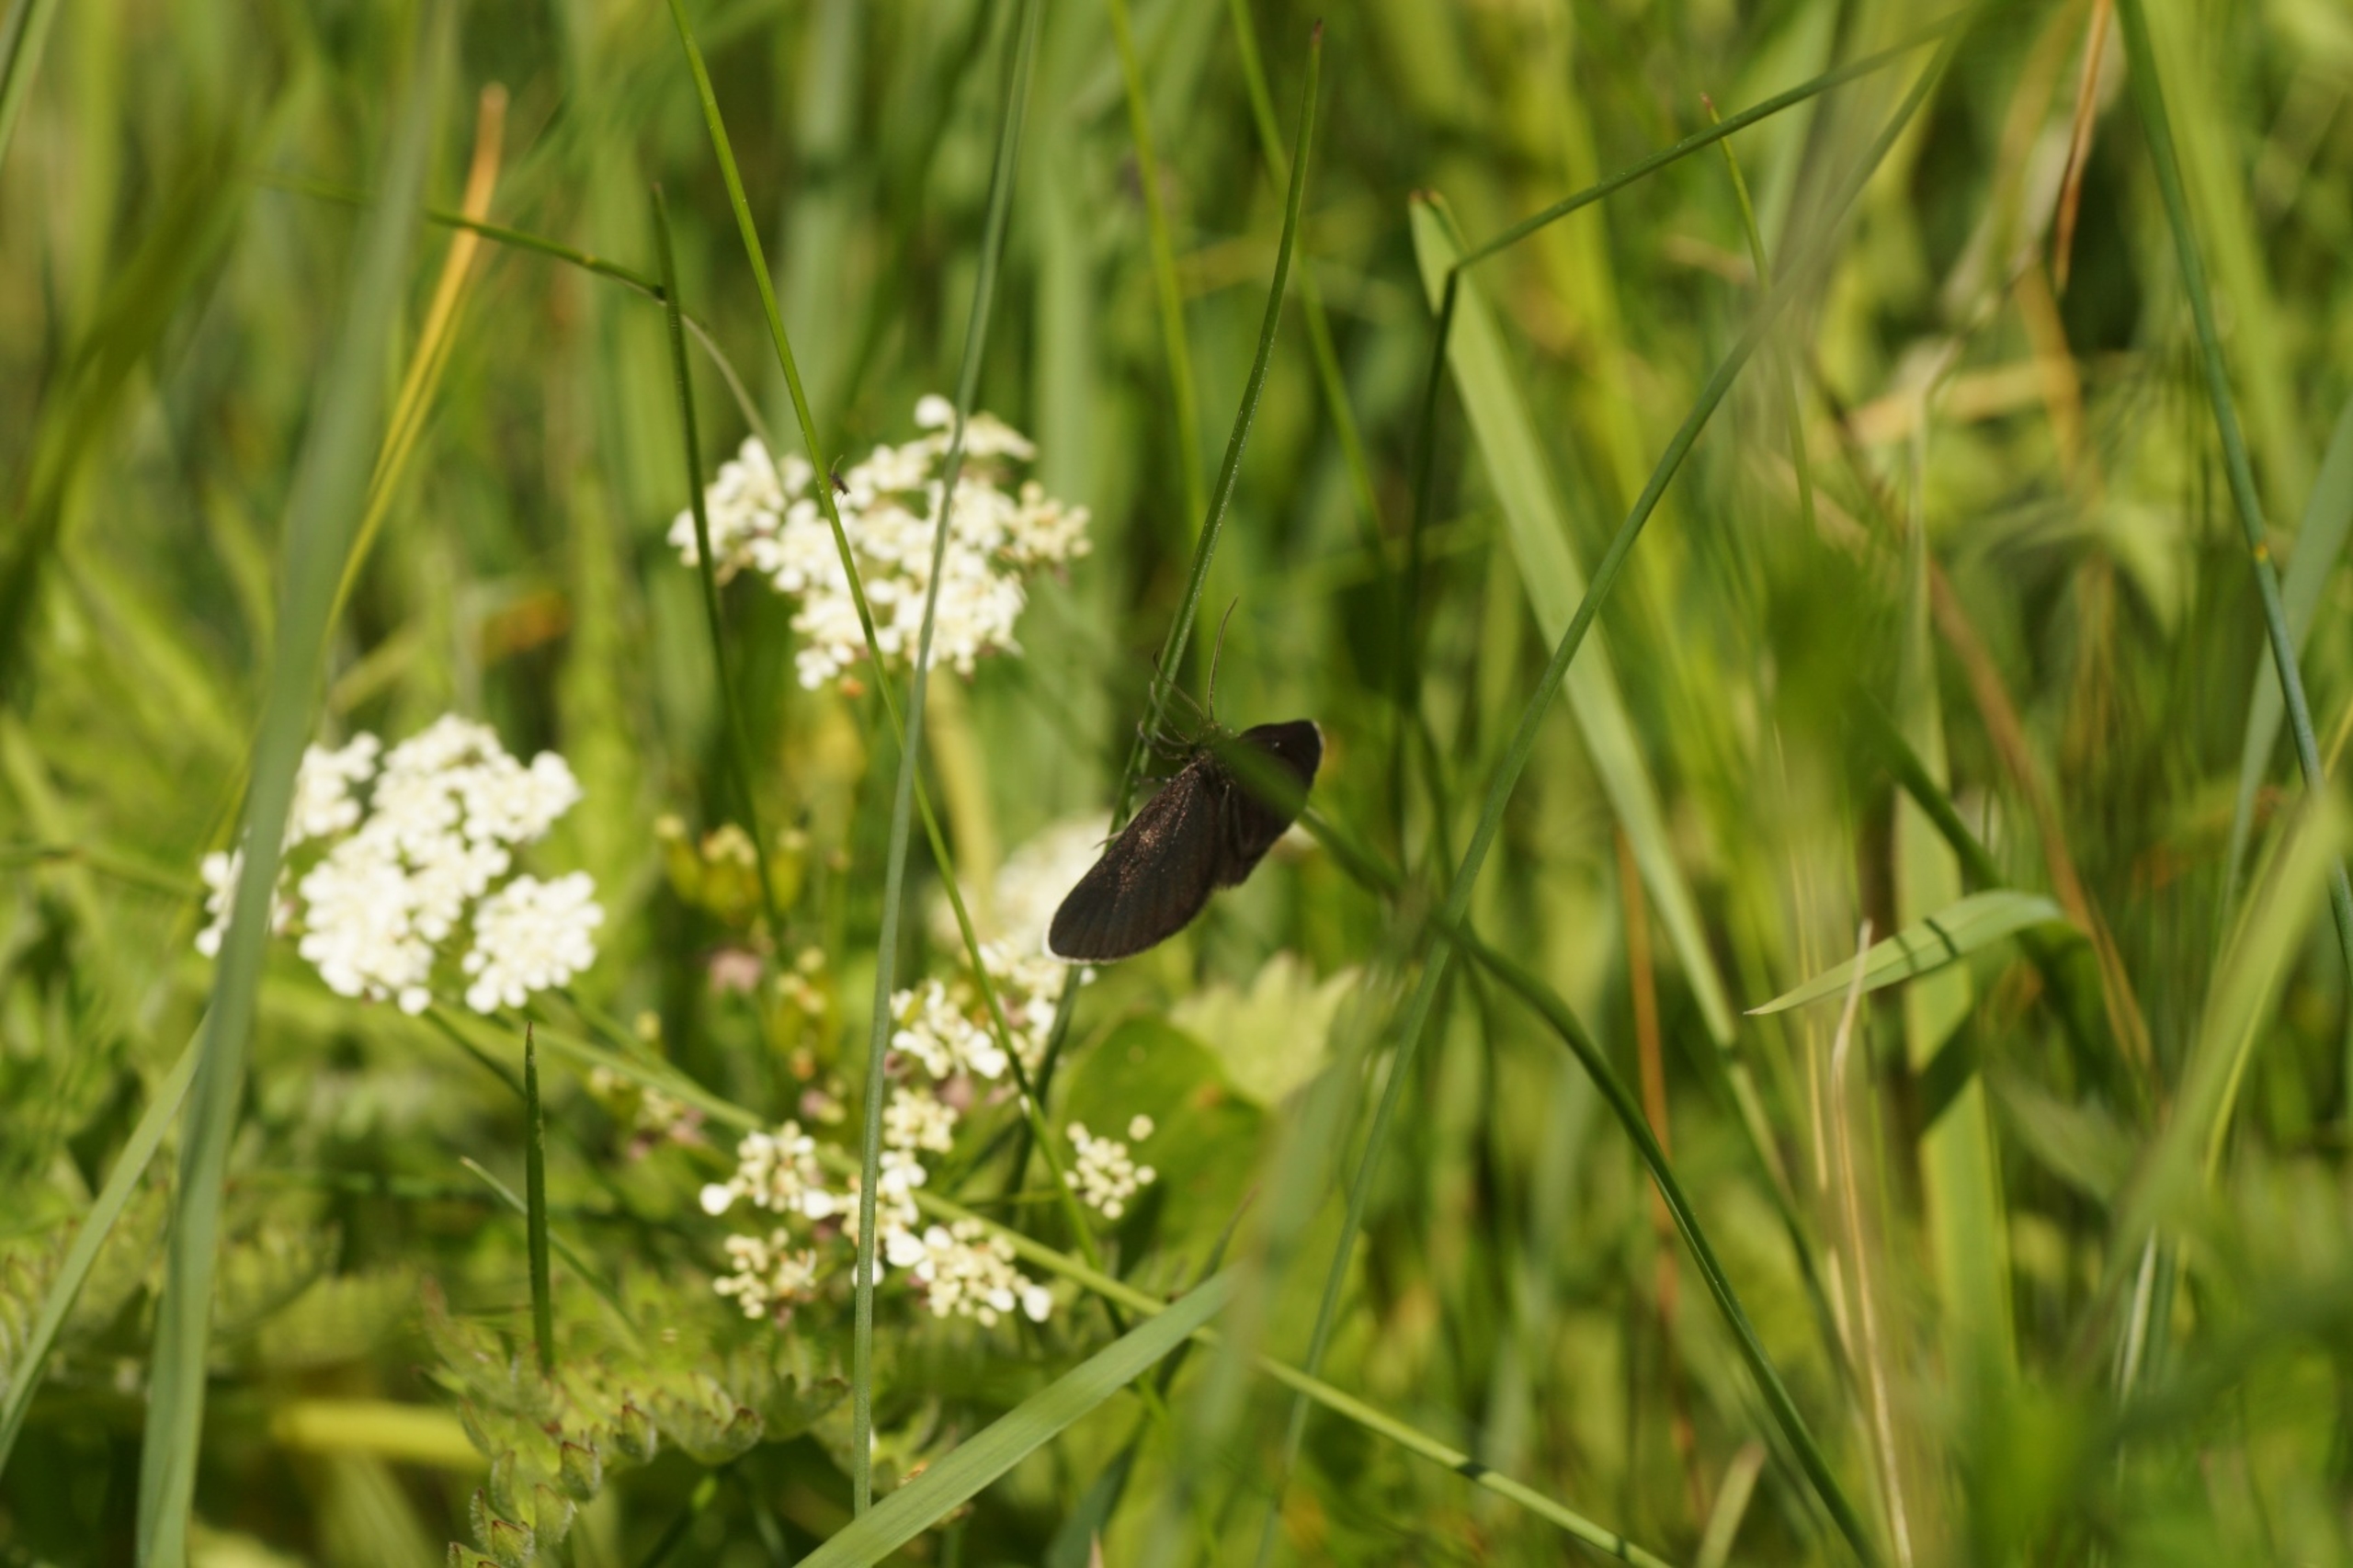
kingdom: Animalia
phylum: Arthropoda
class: Insecta
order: Lepidoptera
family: Geometridae
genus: Odezia
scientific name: Odezia atrata
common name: Sort måler
